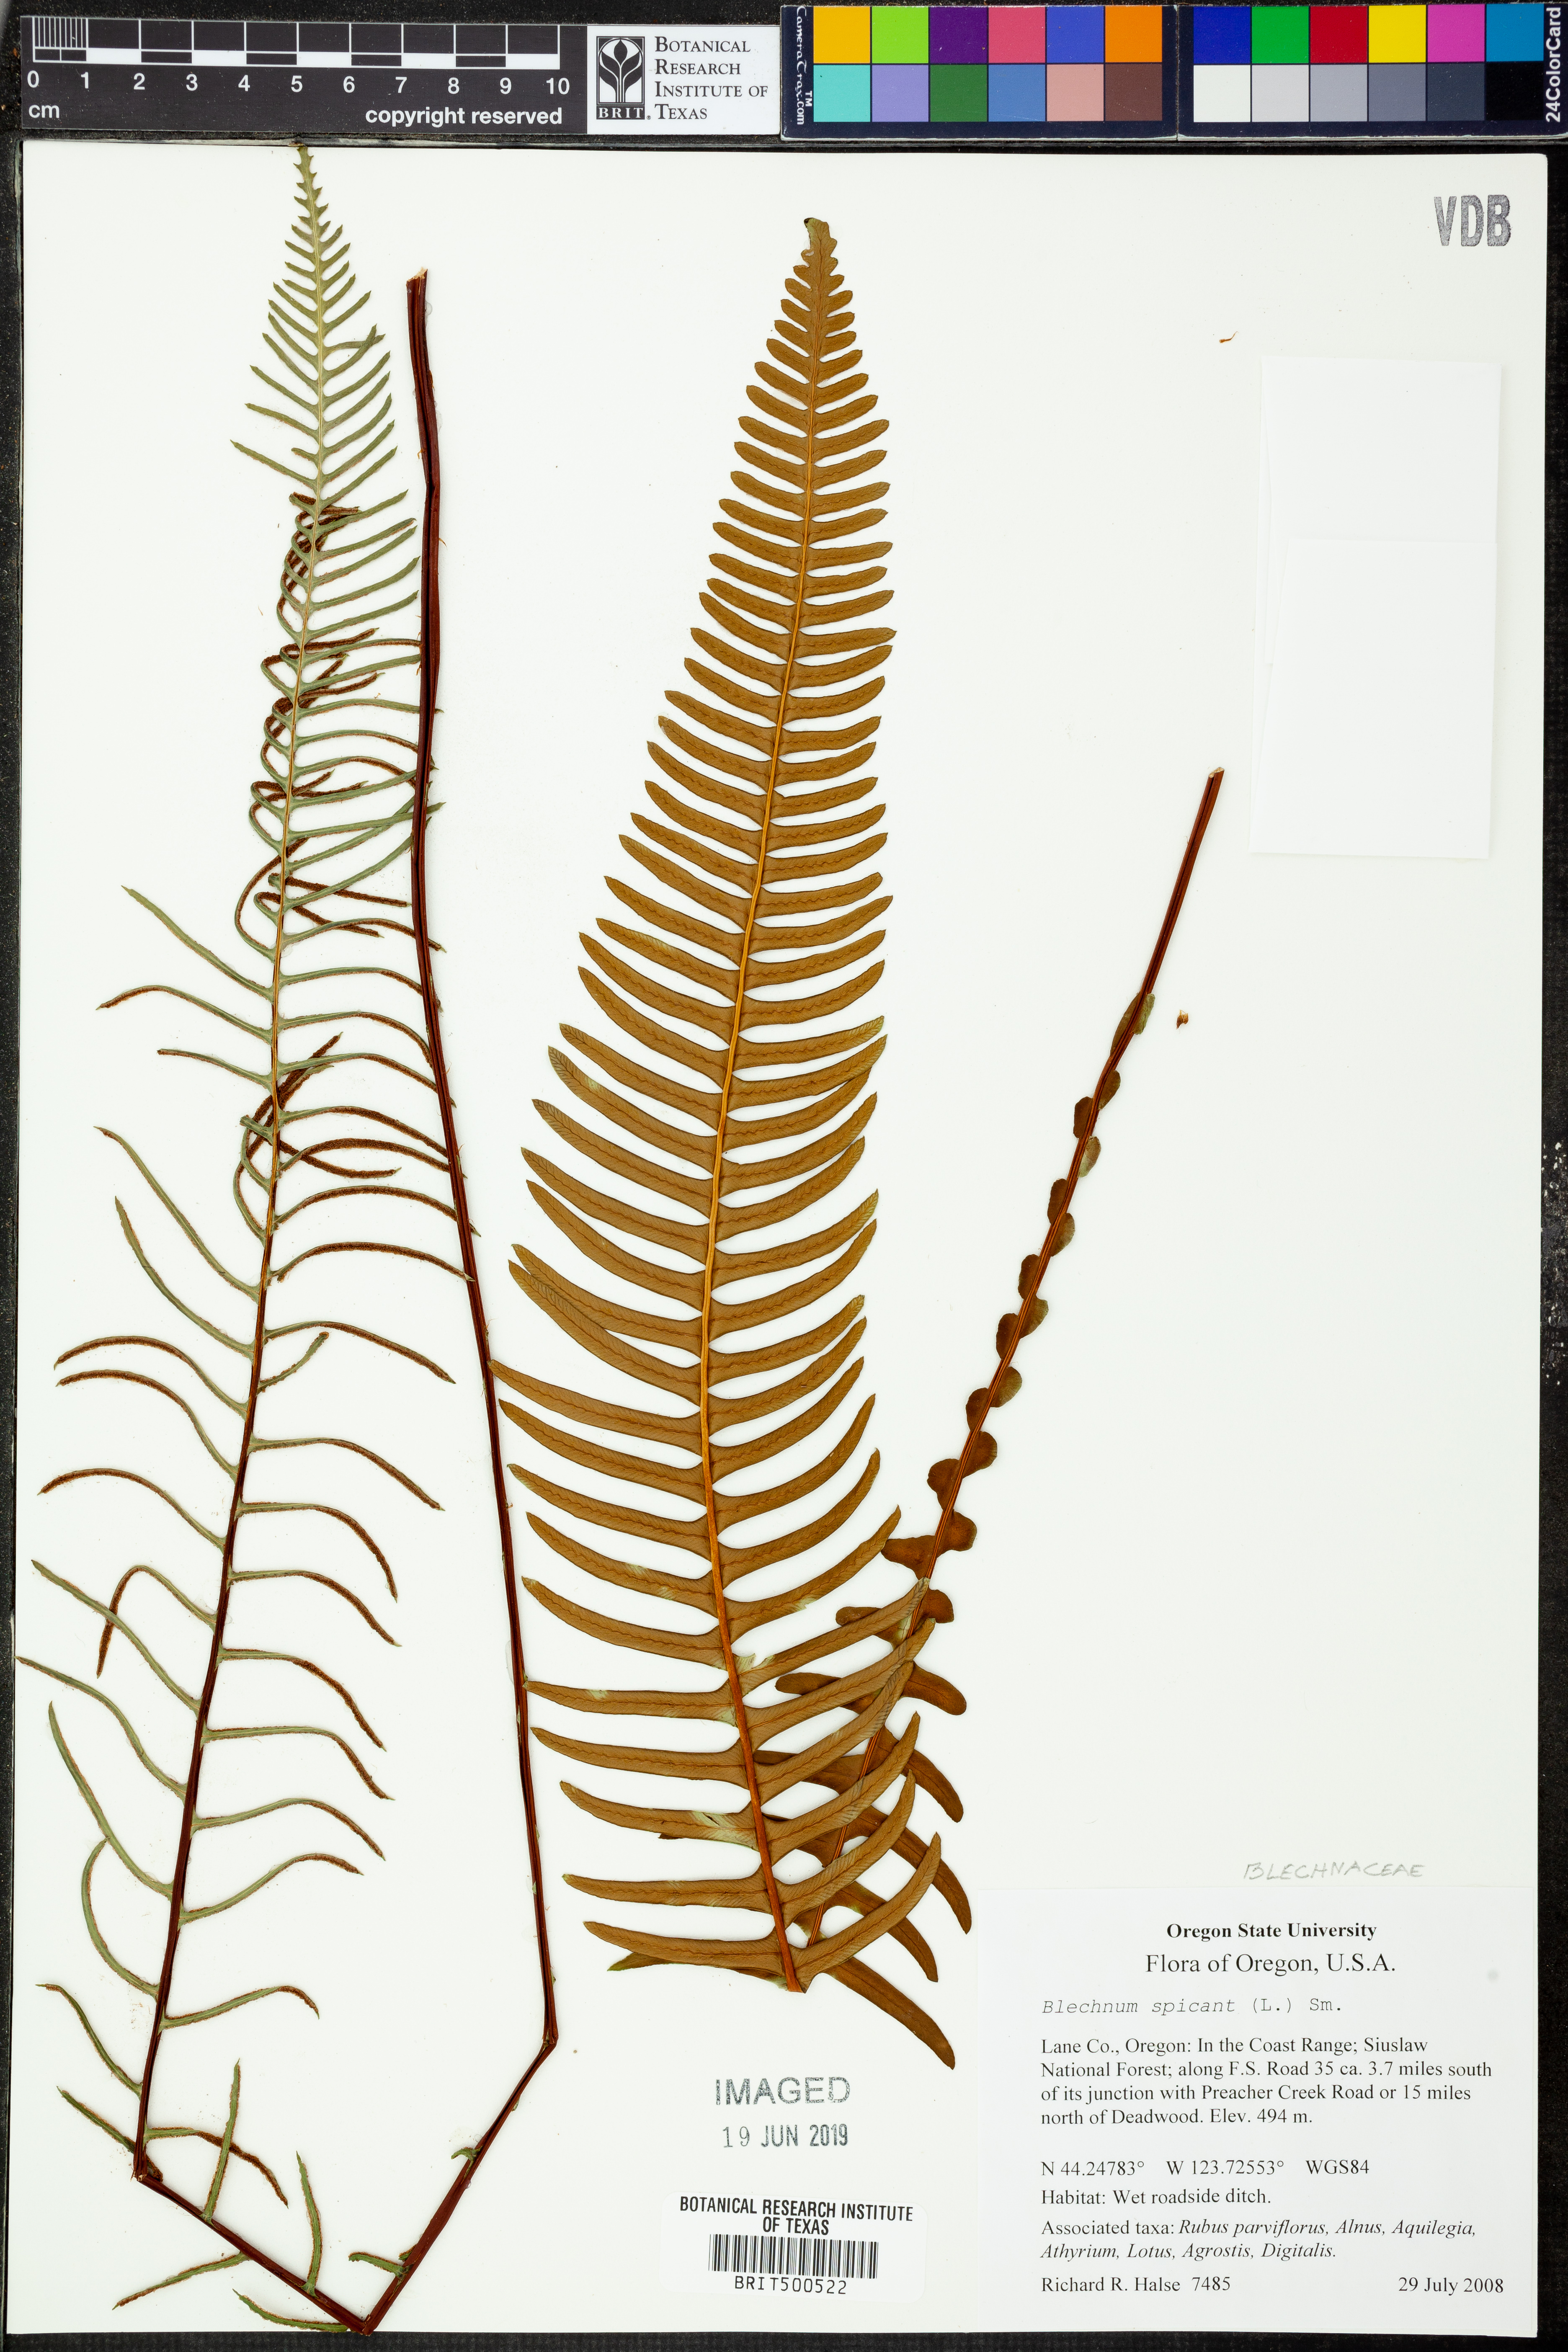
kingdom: Plantae
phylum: Tracheophyta
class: Polypodiopsida
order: Polypodiales
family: Blechnaceae
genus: Struthiopteris
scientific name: Struthiopteris spicant
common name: Deer fern
